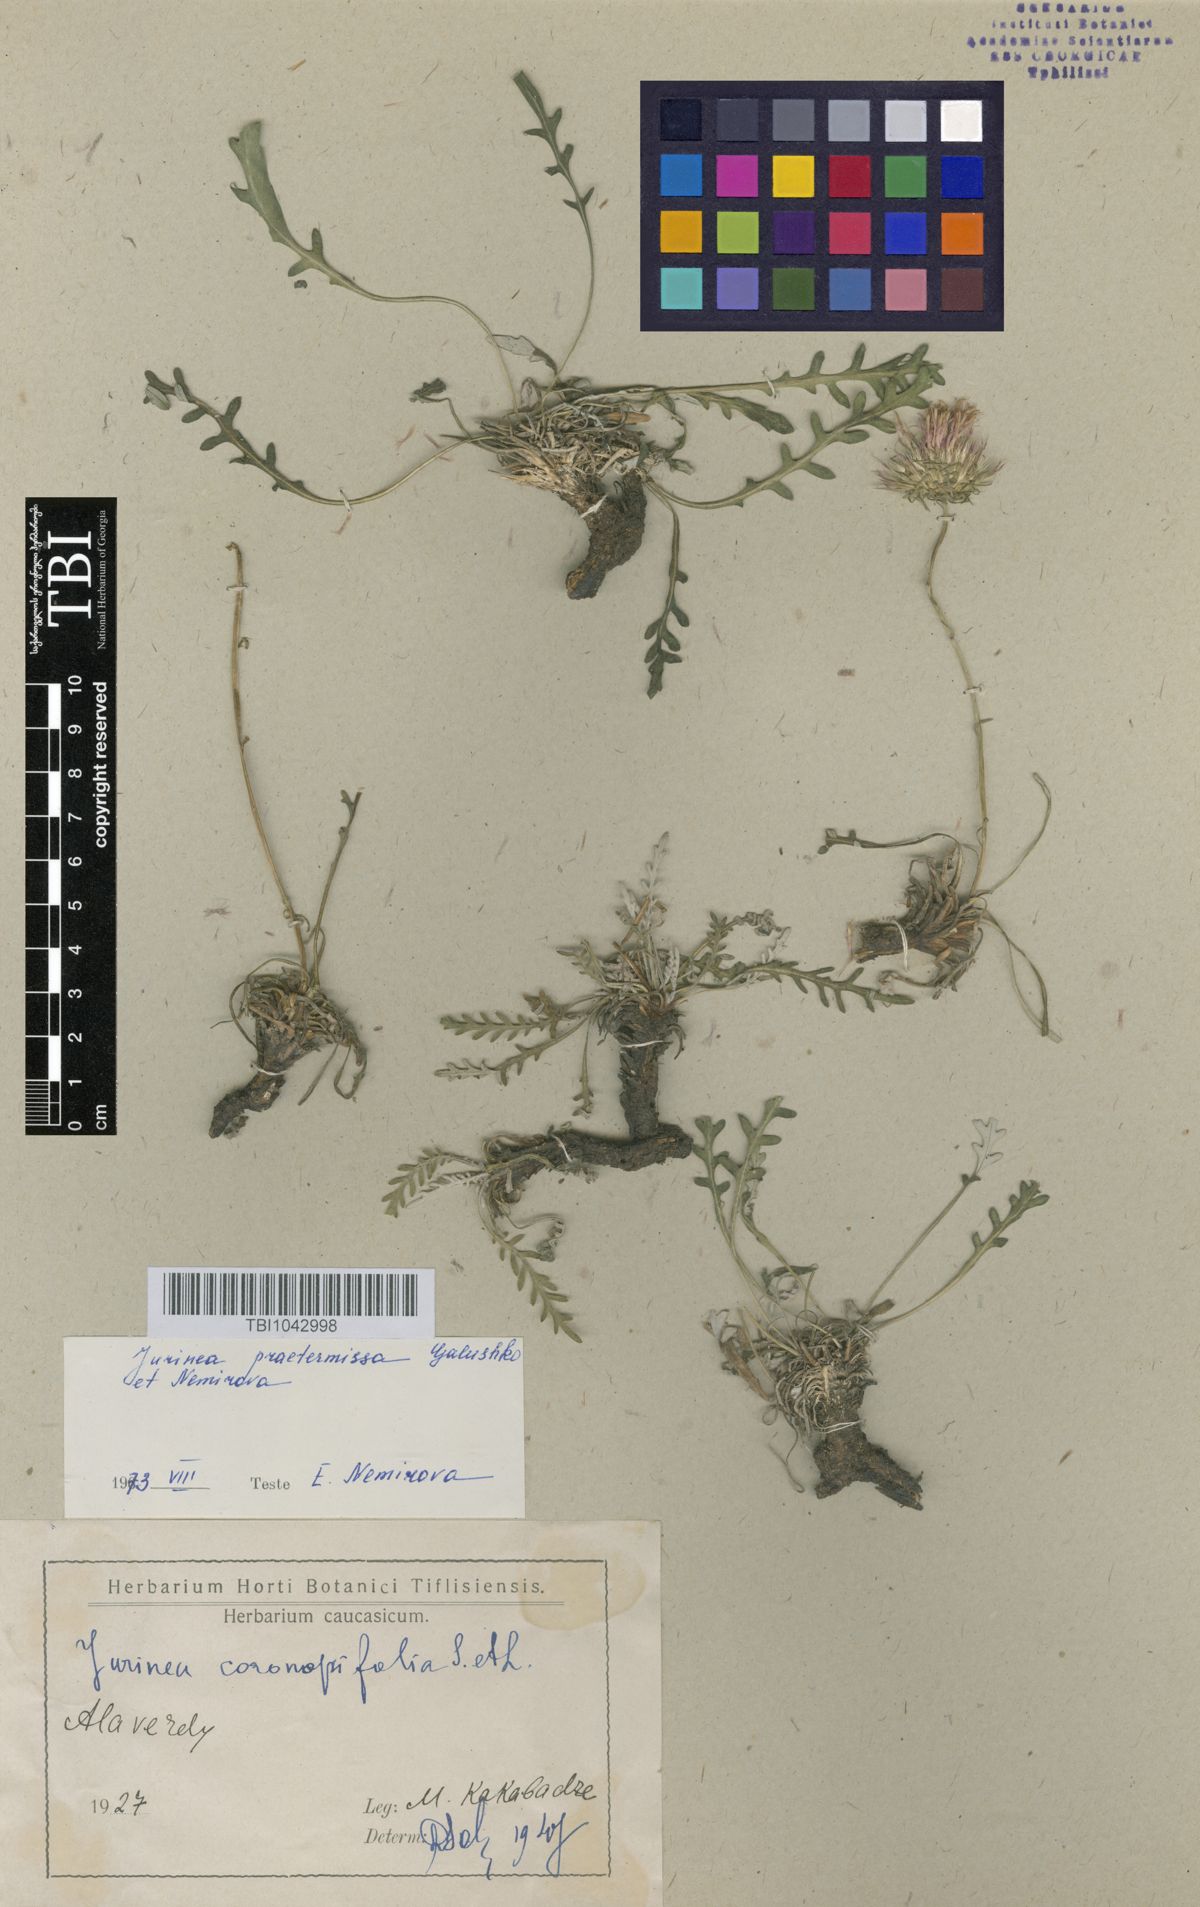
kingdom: Plantae
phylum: Tracheophyta
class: Magnoliopsida
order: Asterales
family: Asteraceae
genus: Jurinea
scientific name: Jurinea praetermissa
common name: Neglected jurinea
